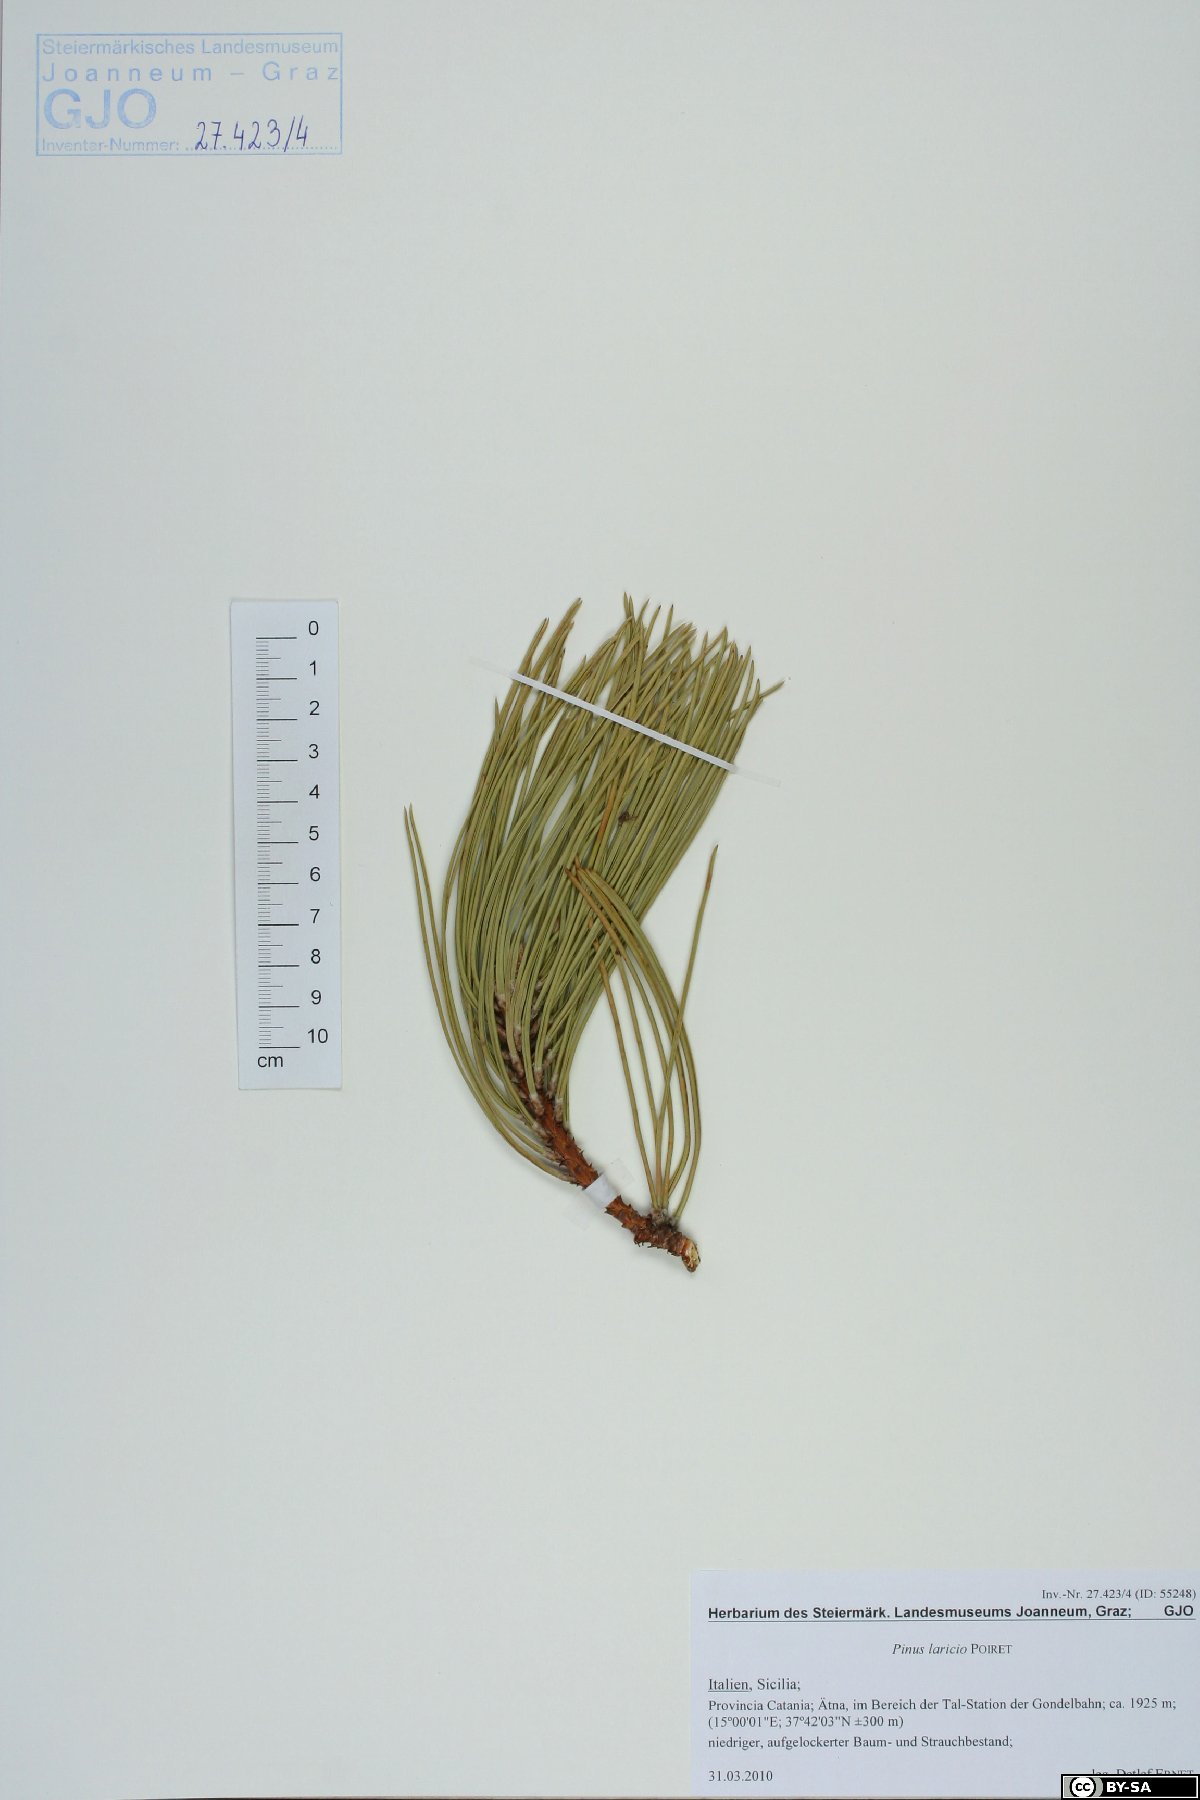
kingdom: Plantae
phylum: Tracheophyta
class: Pinopsida
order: Pinales
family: Pinaceae
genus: Pinus
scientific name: Pinus nigra
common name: Austrian pine
